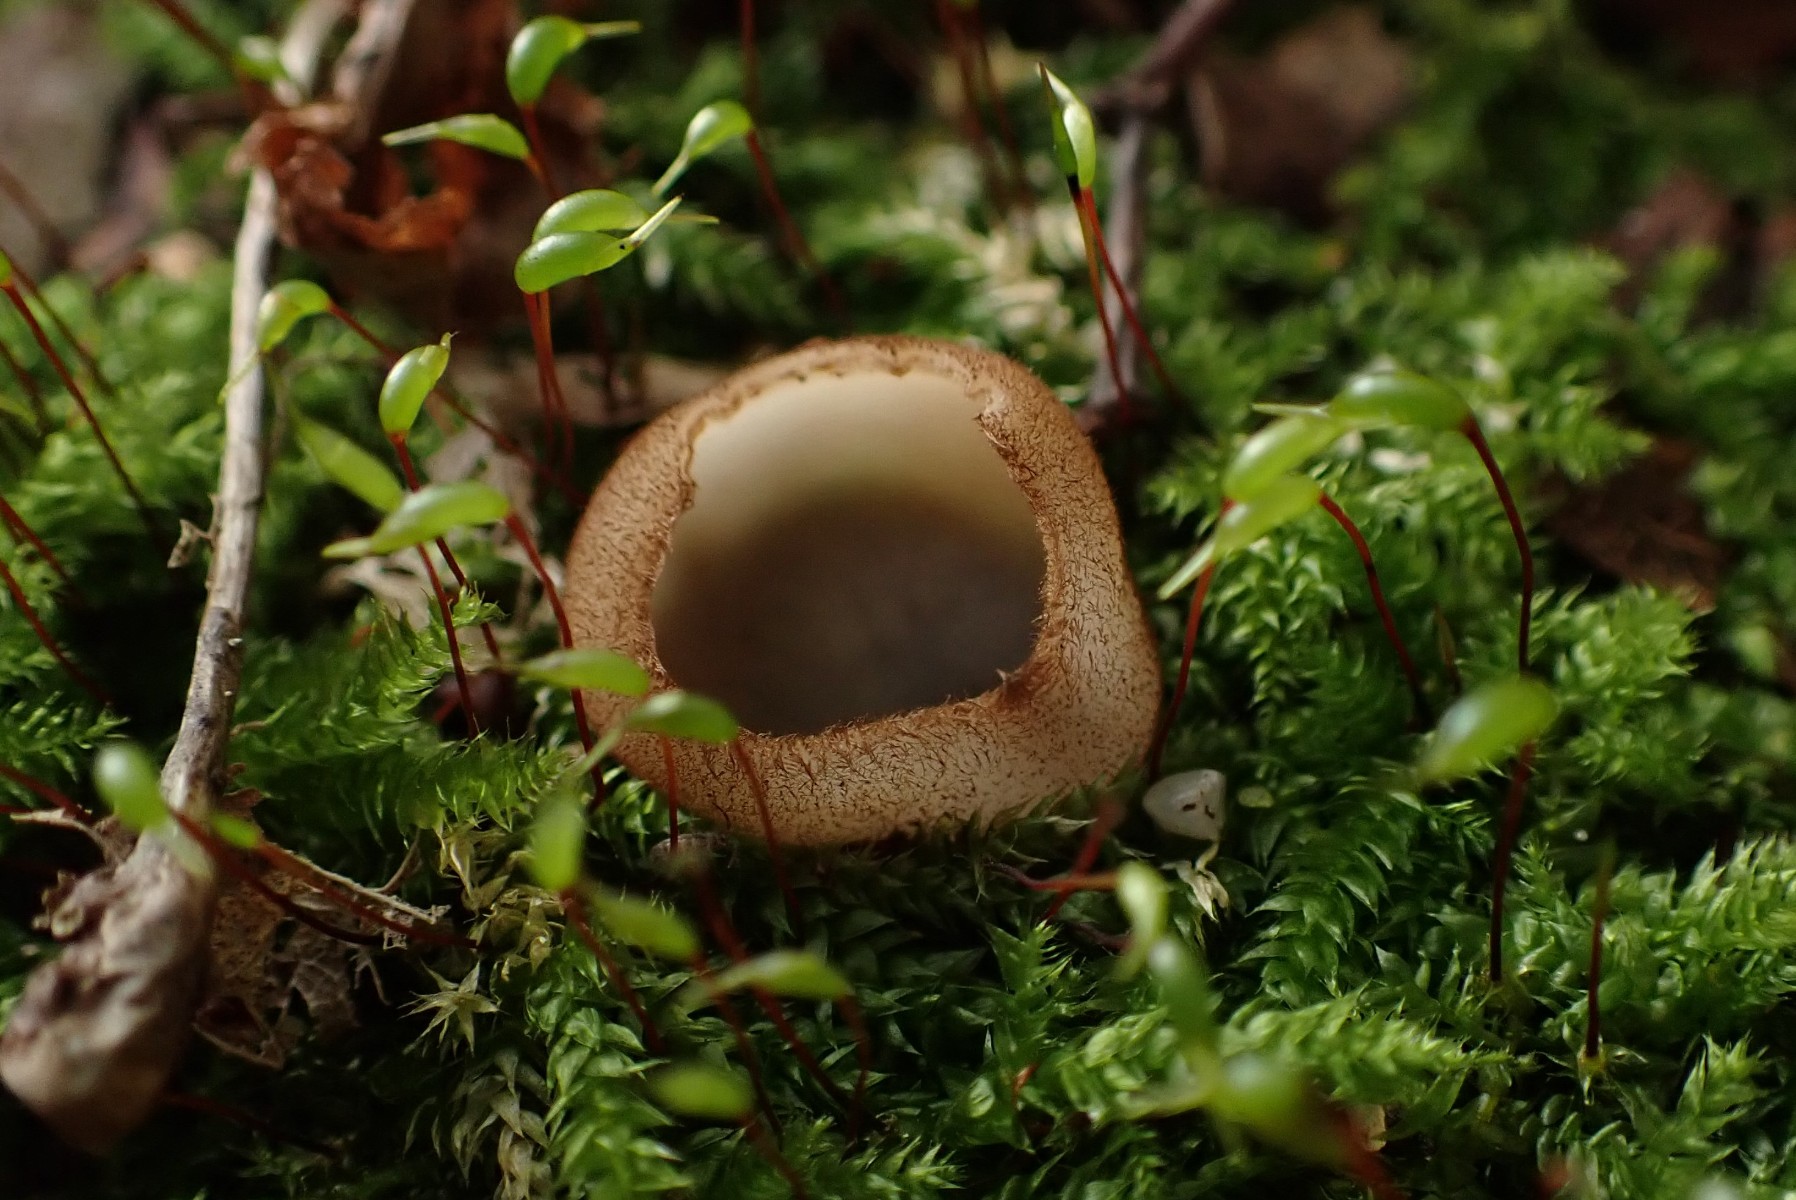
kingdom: Fungi
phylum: Ascomycota
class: Pezizomycetes
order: Pezizales
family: Pyronemataceae
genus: Humaria
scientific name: Humaria hemisphaerica
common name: halvkugleformet børstebæger
